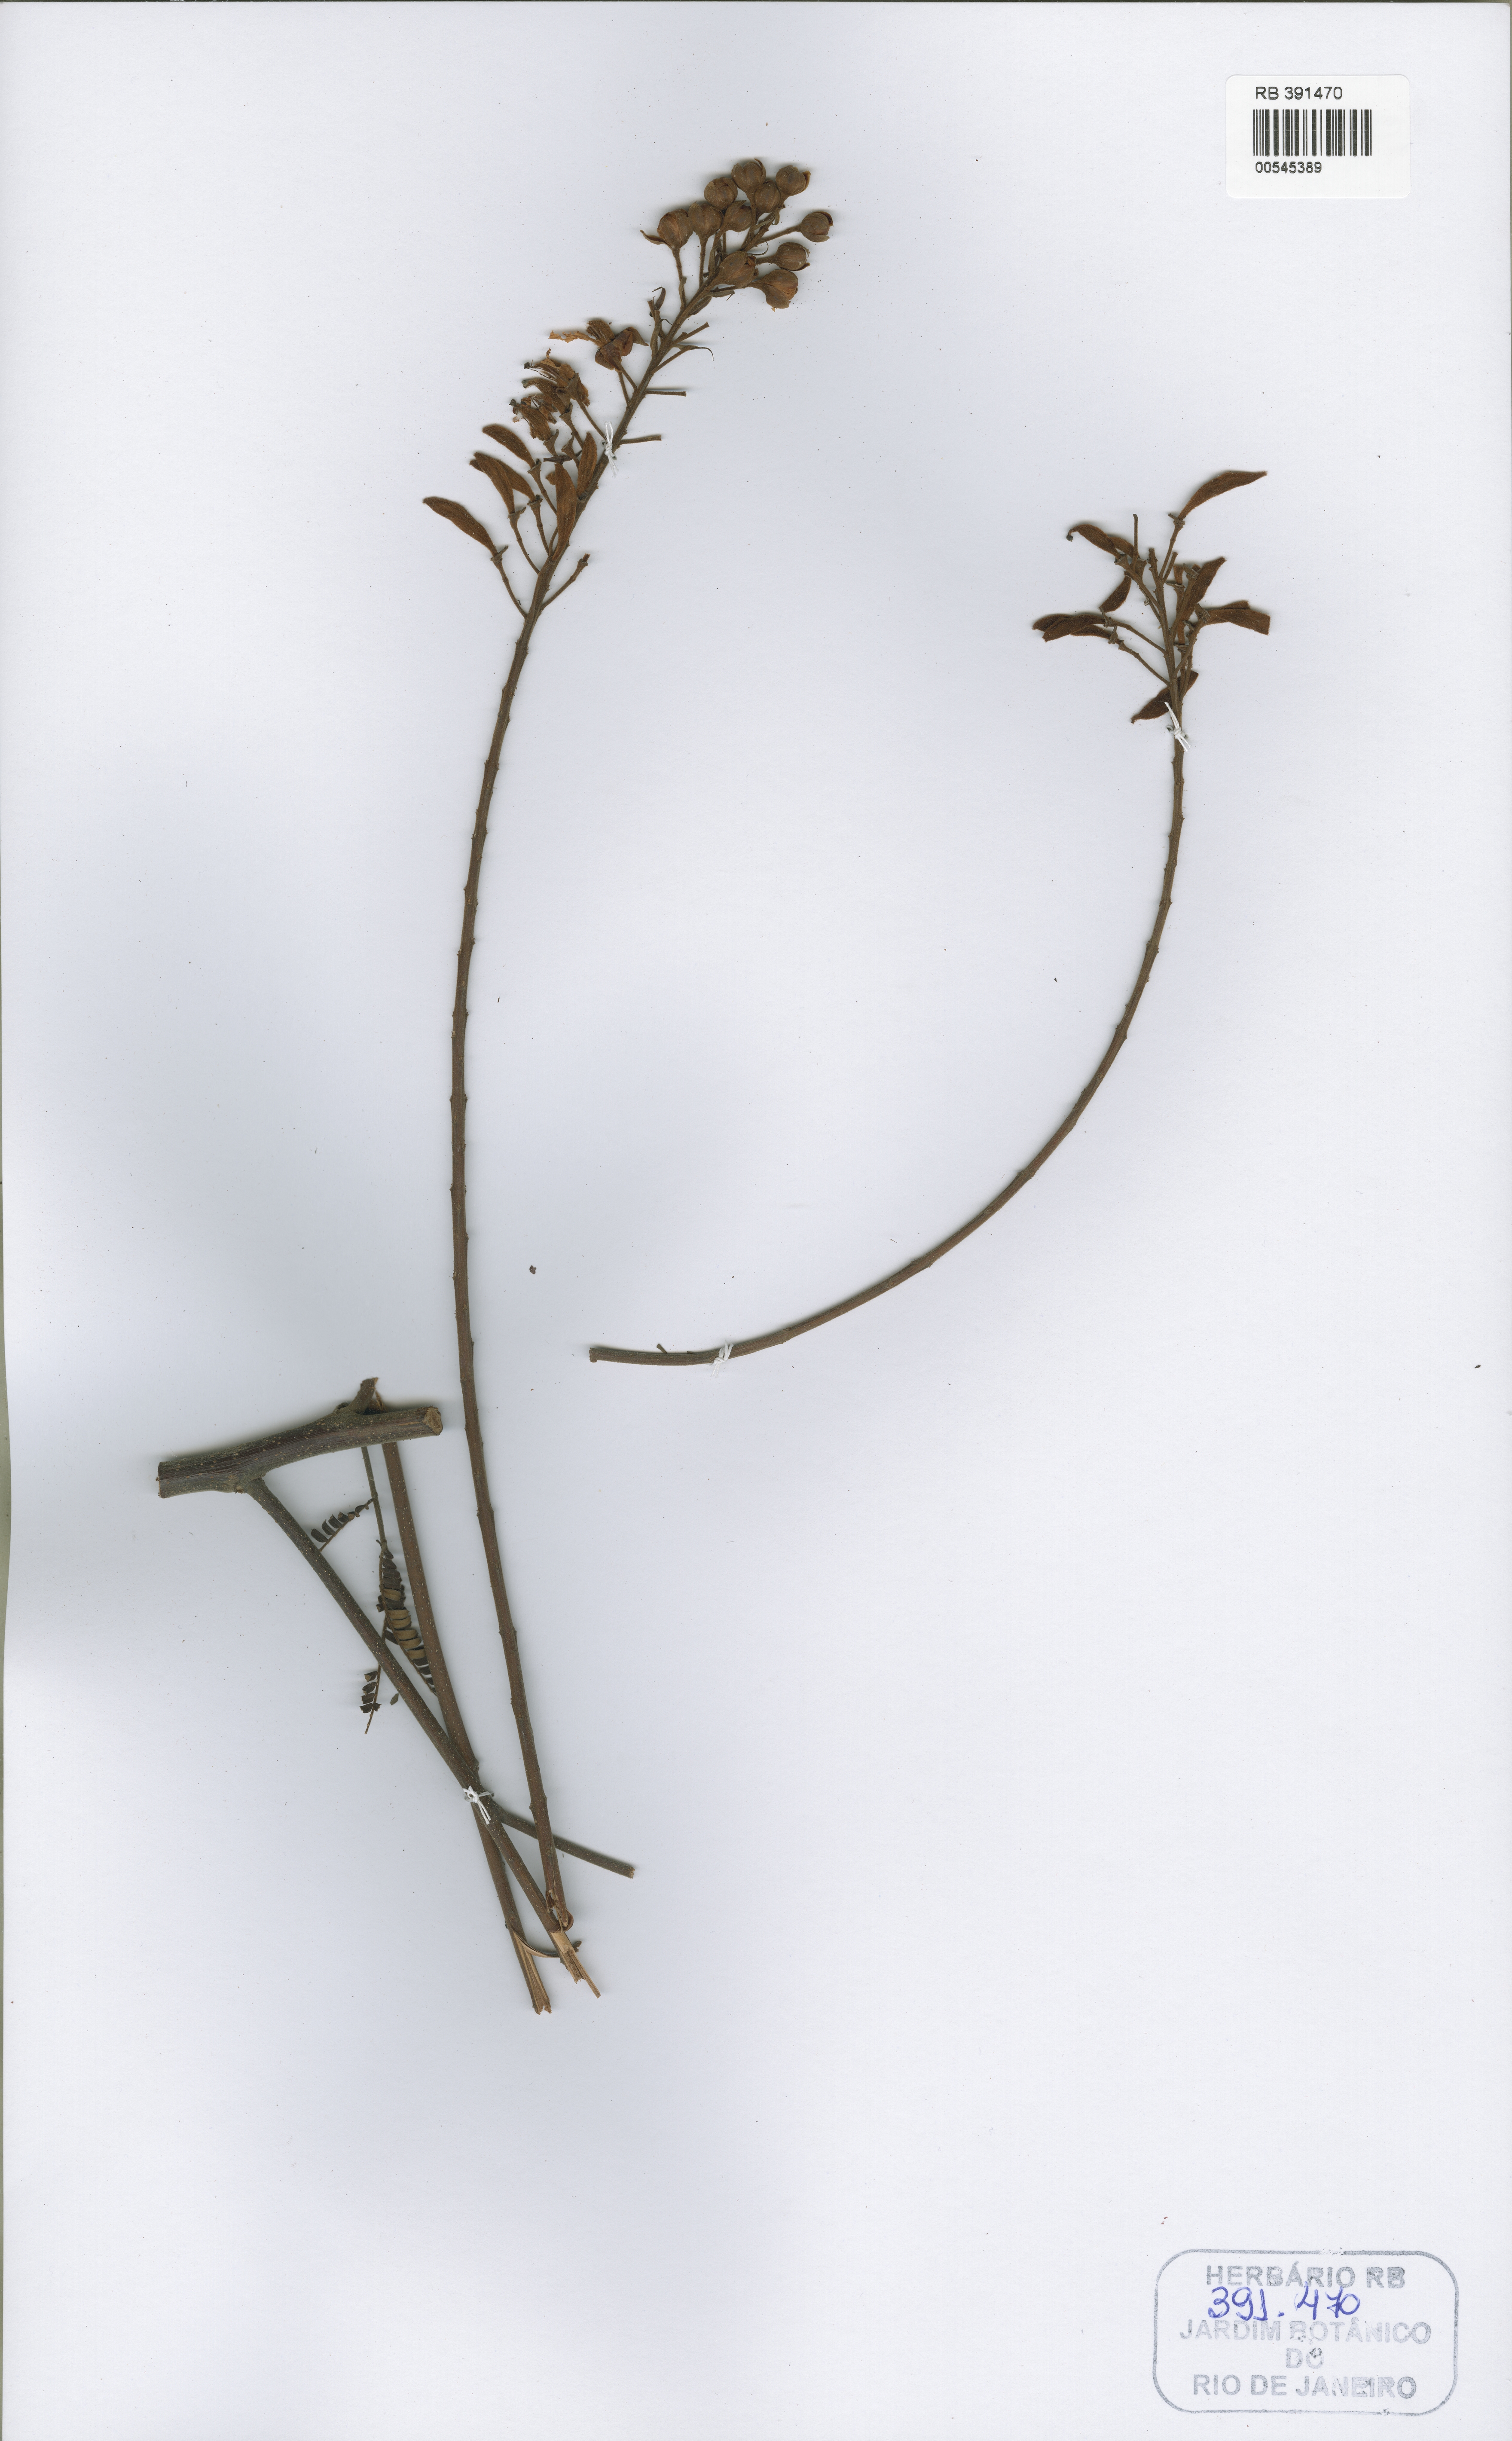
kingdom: Plantae
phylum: Tracheophyta
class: Magnoliopsida
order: Fabales
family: Fabaceae
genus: Peltophorum
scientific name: Peltophorum venezuelense
